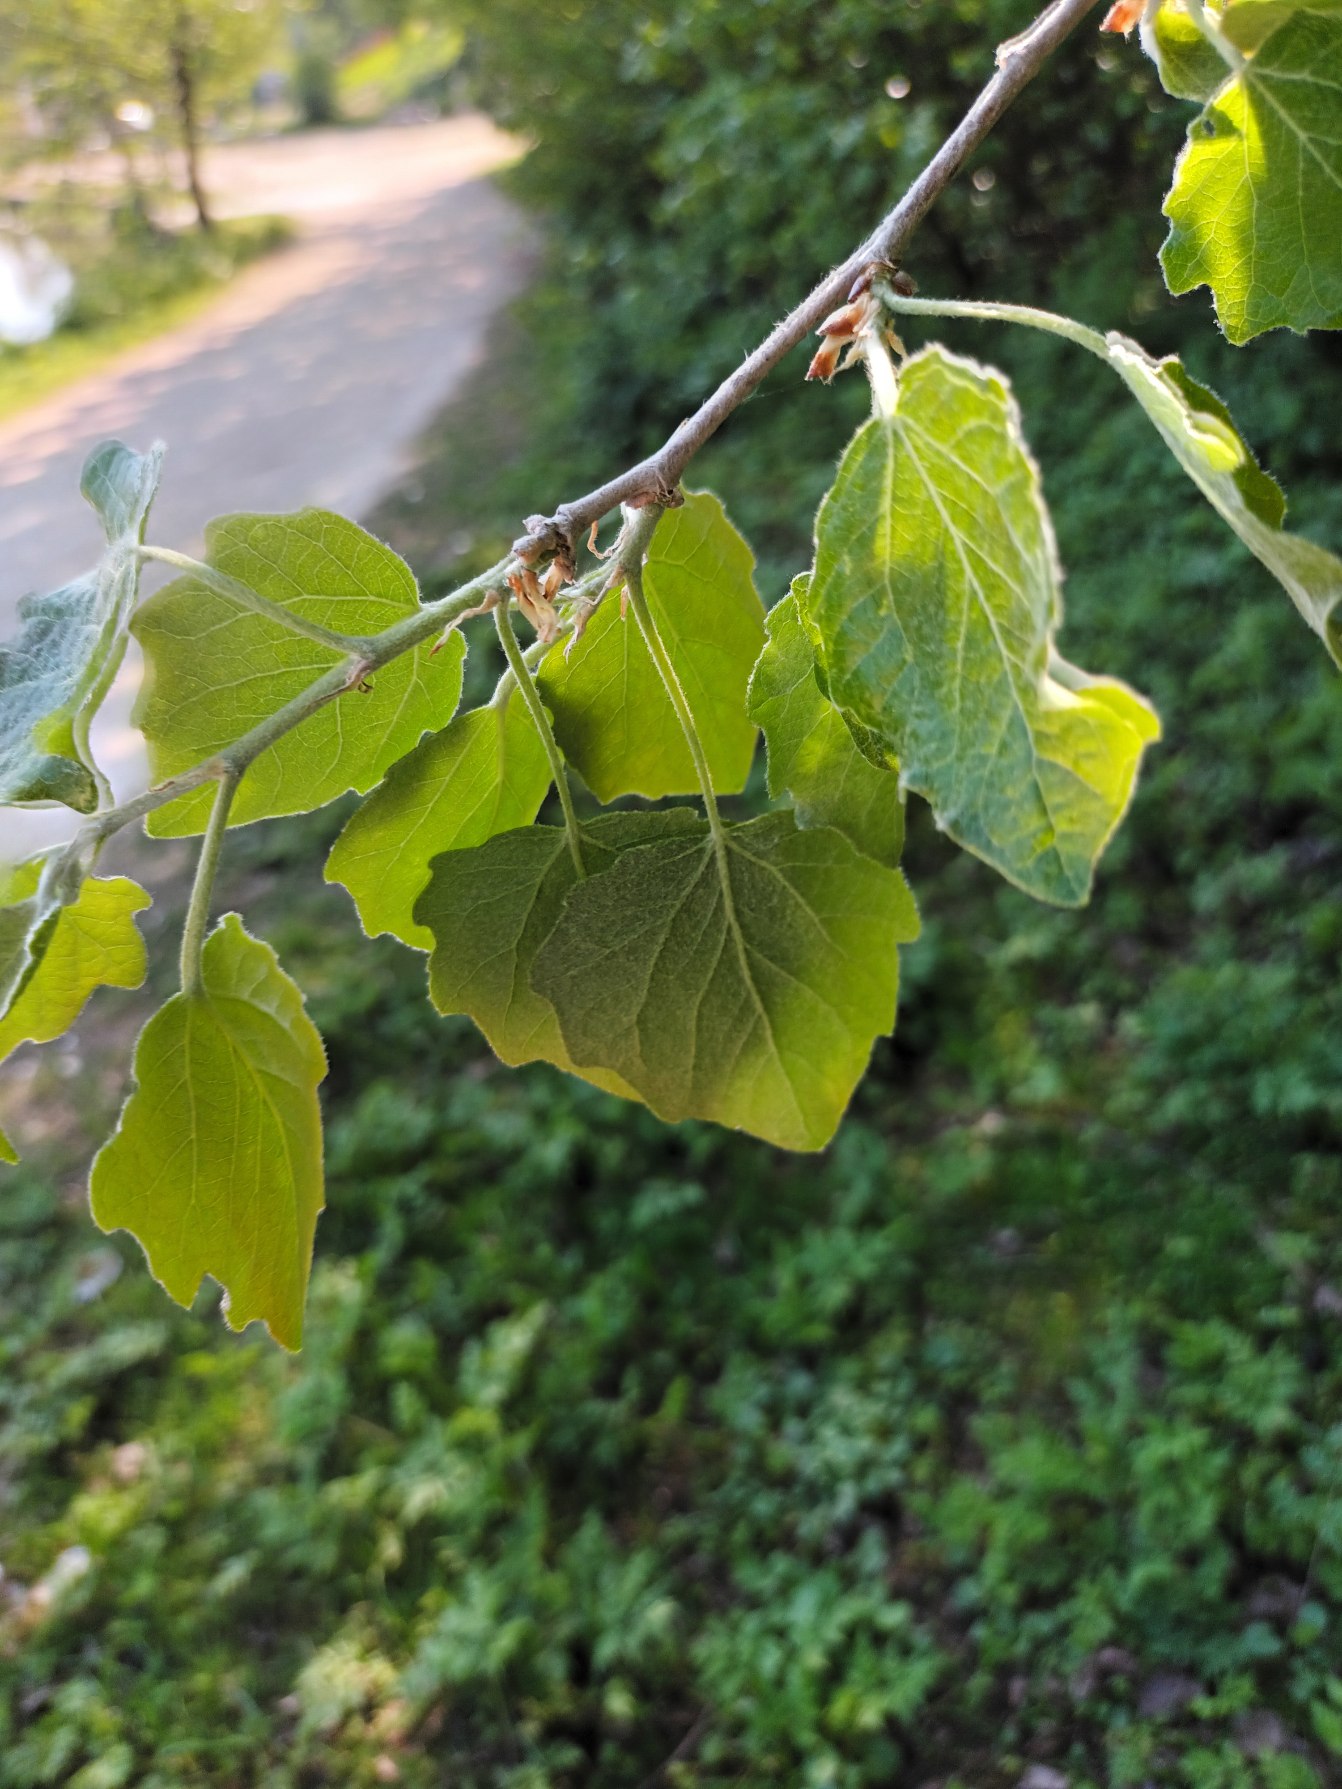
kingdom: Plantae
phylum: Tracheophyta
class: Magnoliopsida
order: Malpighiales
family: Salicaceae
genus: Populus
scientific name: Populus canescens
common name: Grå-poppel
